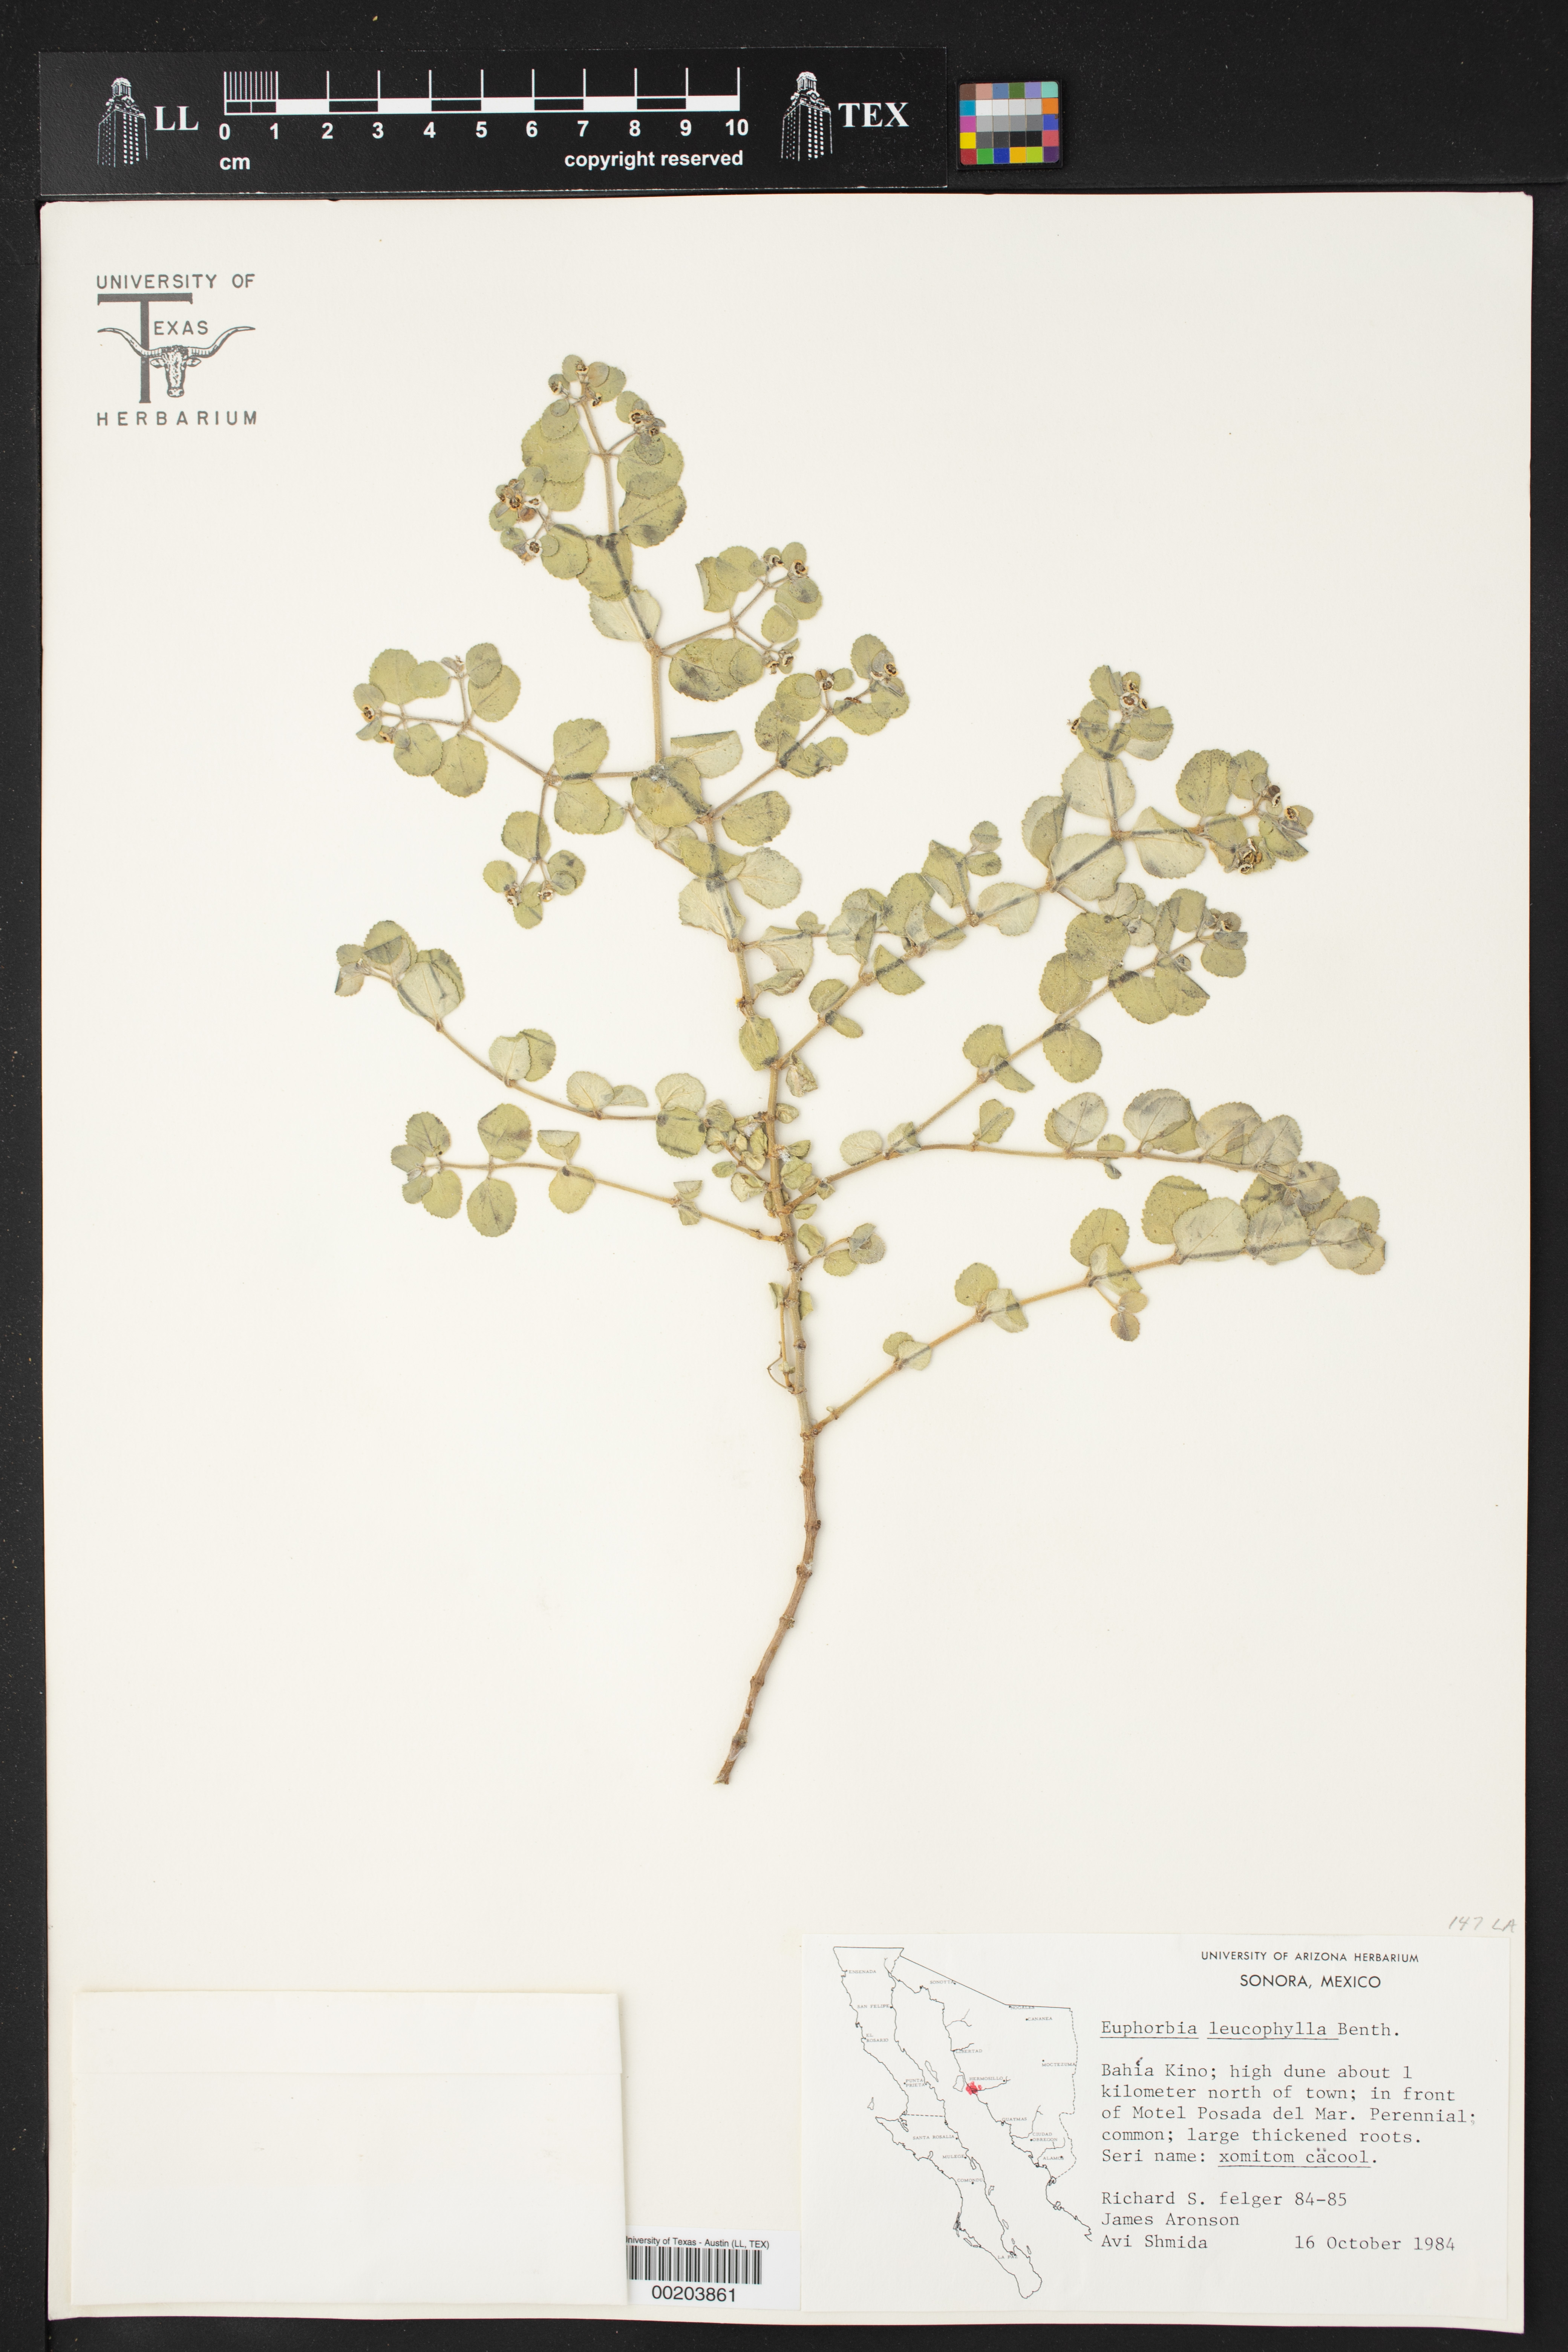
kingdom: Plantae
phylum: Tracheophyta
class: Magnoliopsida
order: Malpighiales
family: Euphorbiaceae
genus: Euphorbia
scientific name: Euphorbia leucophylla
